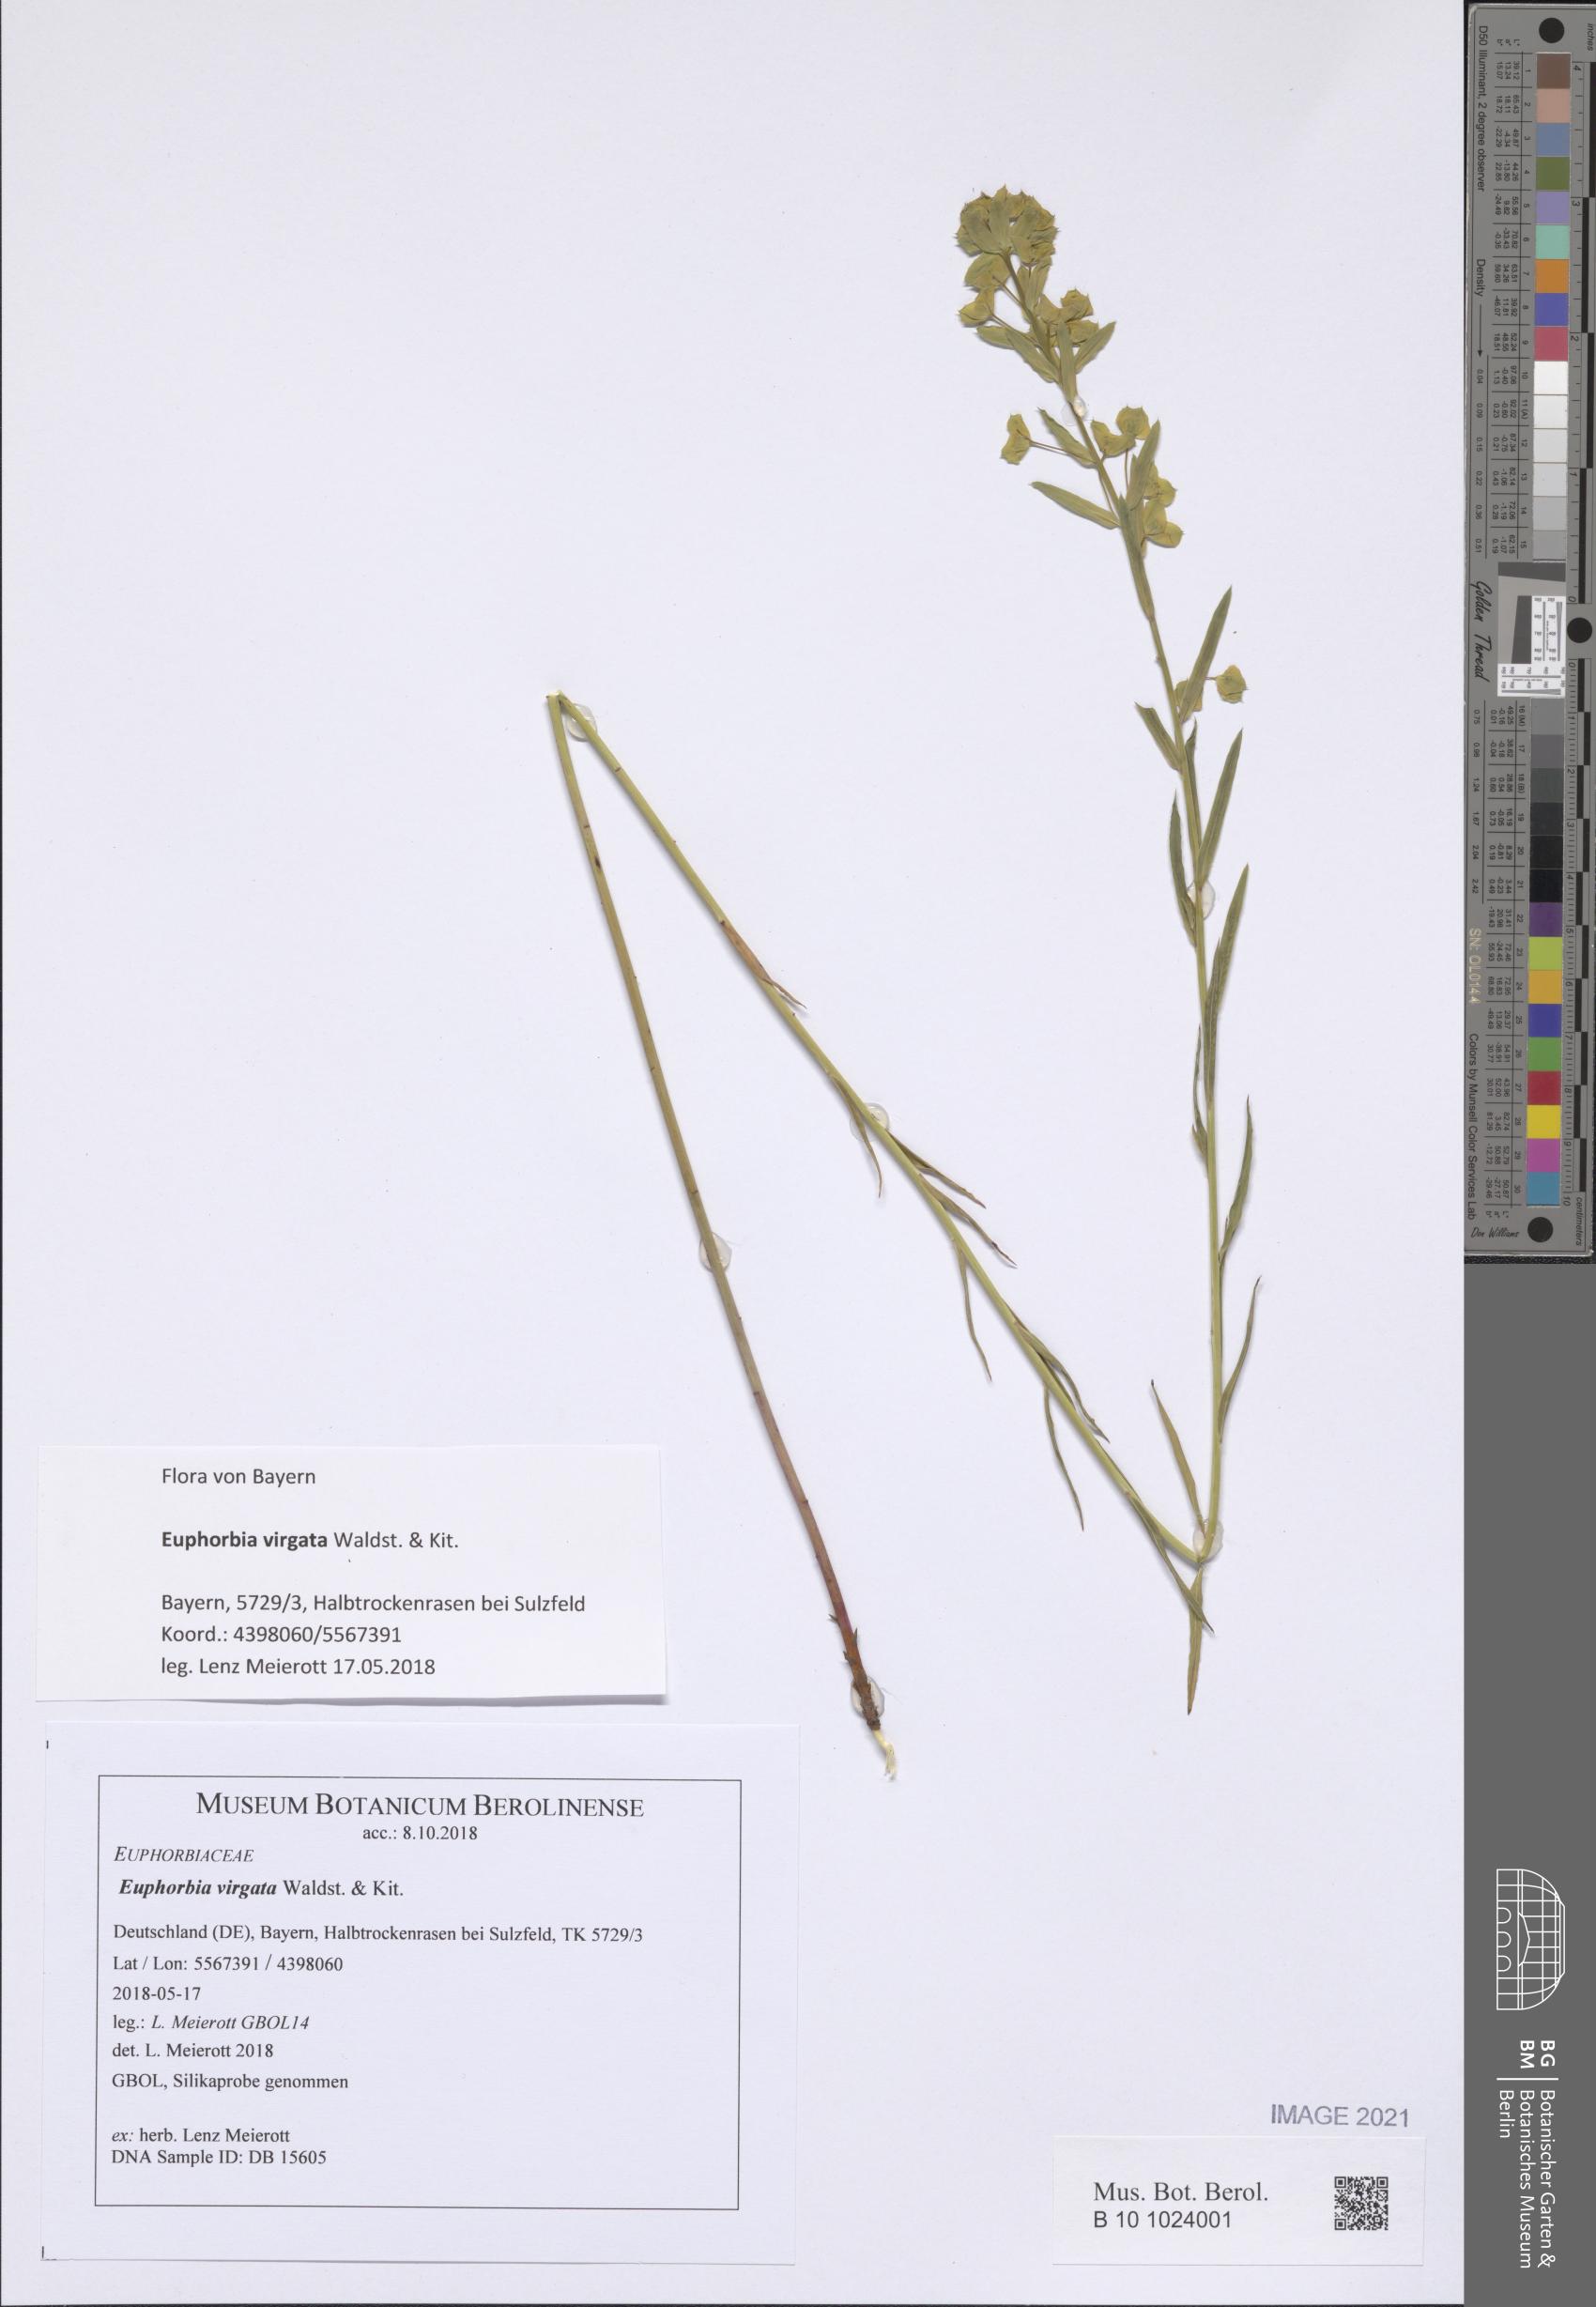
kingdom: Plantae
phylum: Tracheophyta
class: Magnoliopsida
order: Malpighiales
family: Euphorbiaceae
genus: Euphorbia
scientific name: Euphorbia virgata
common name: Leafy spurge
